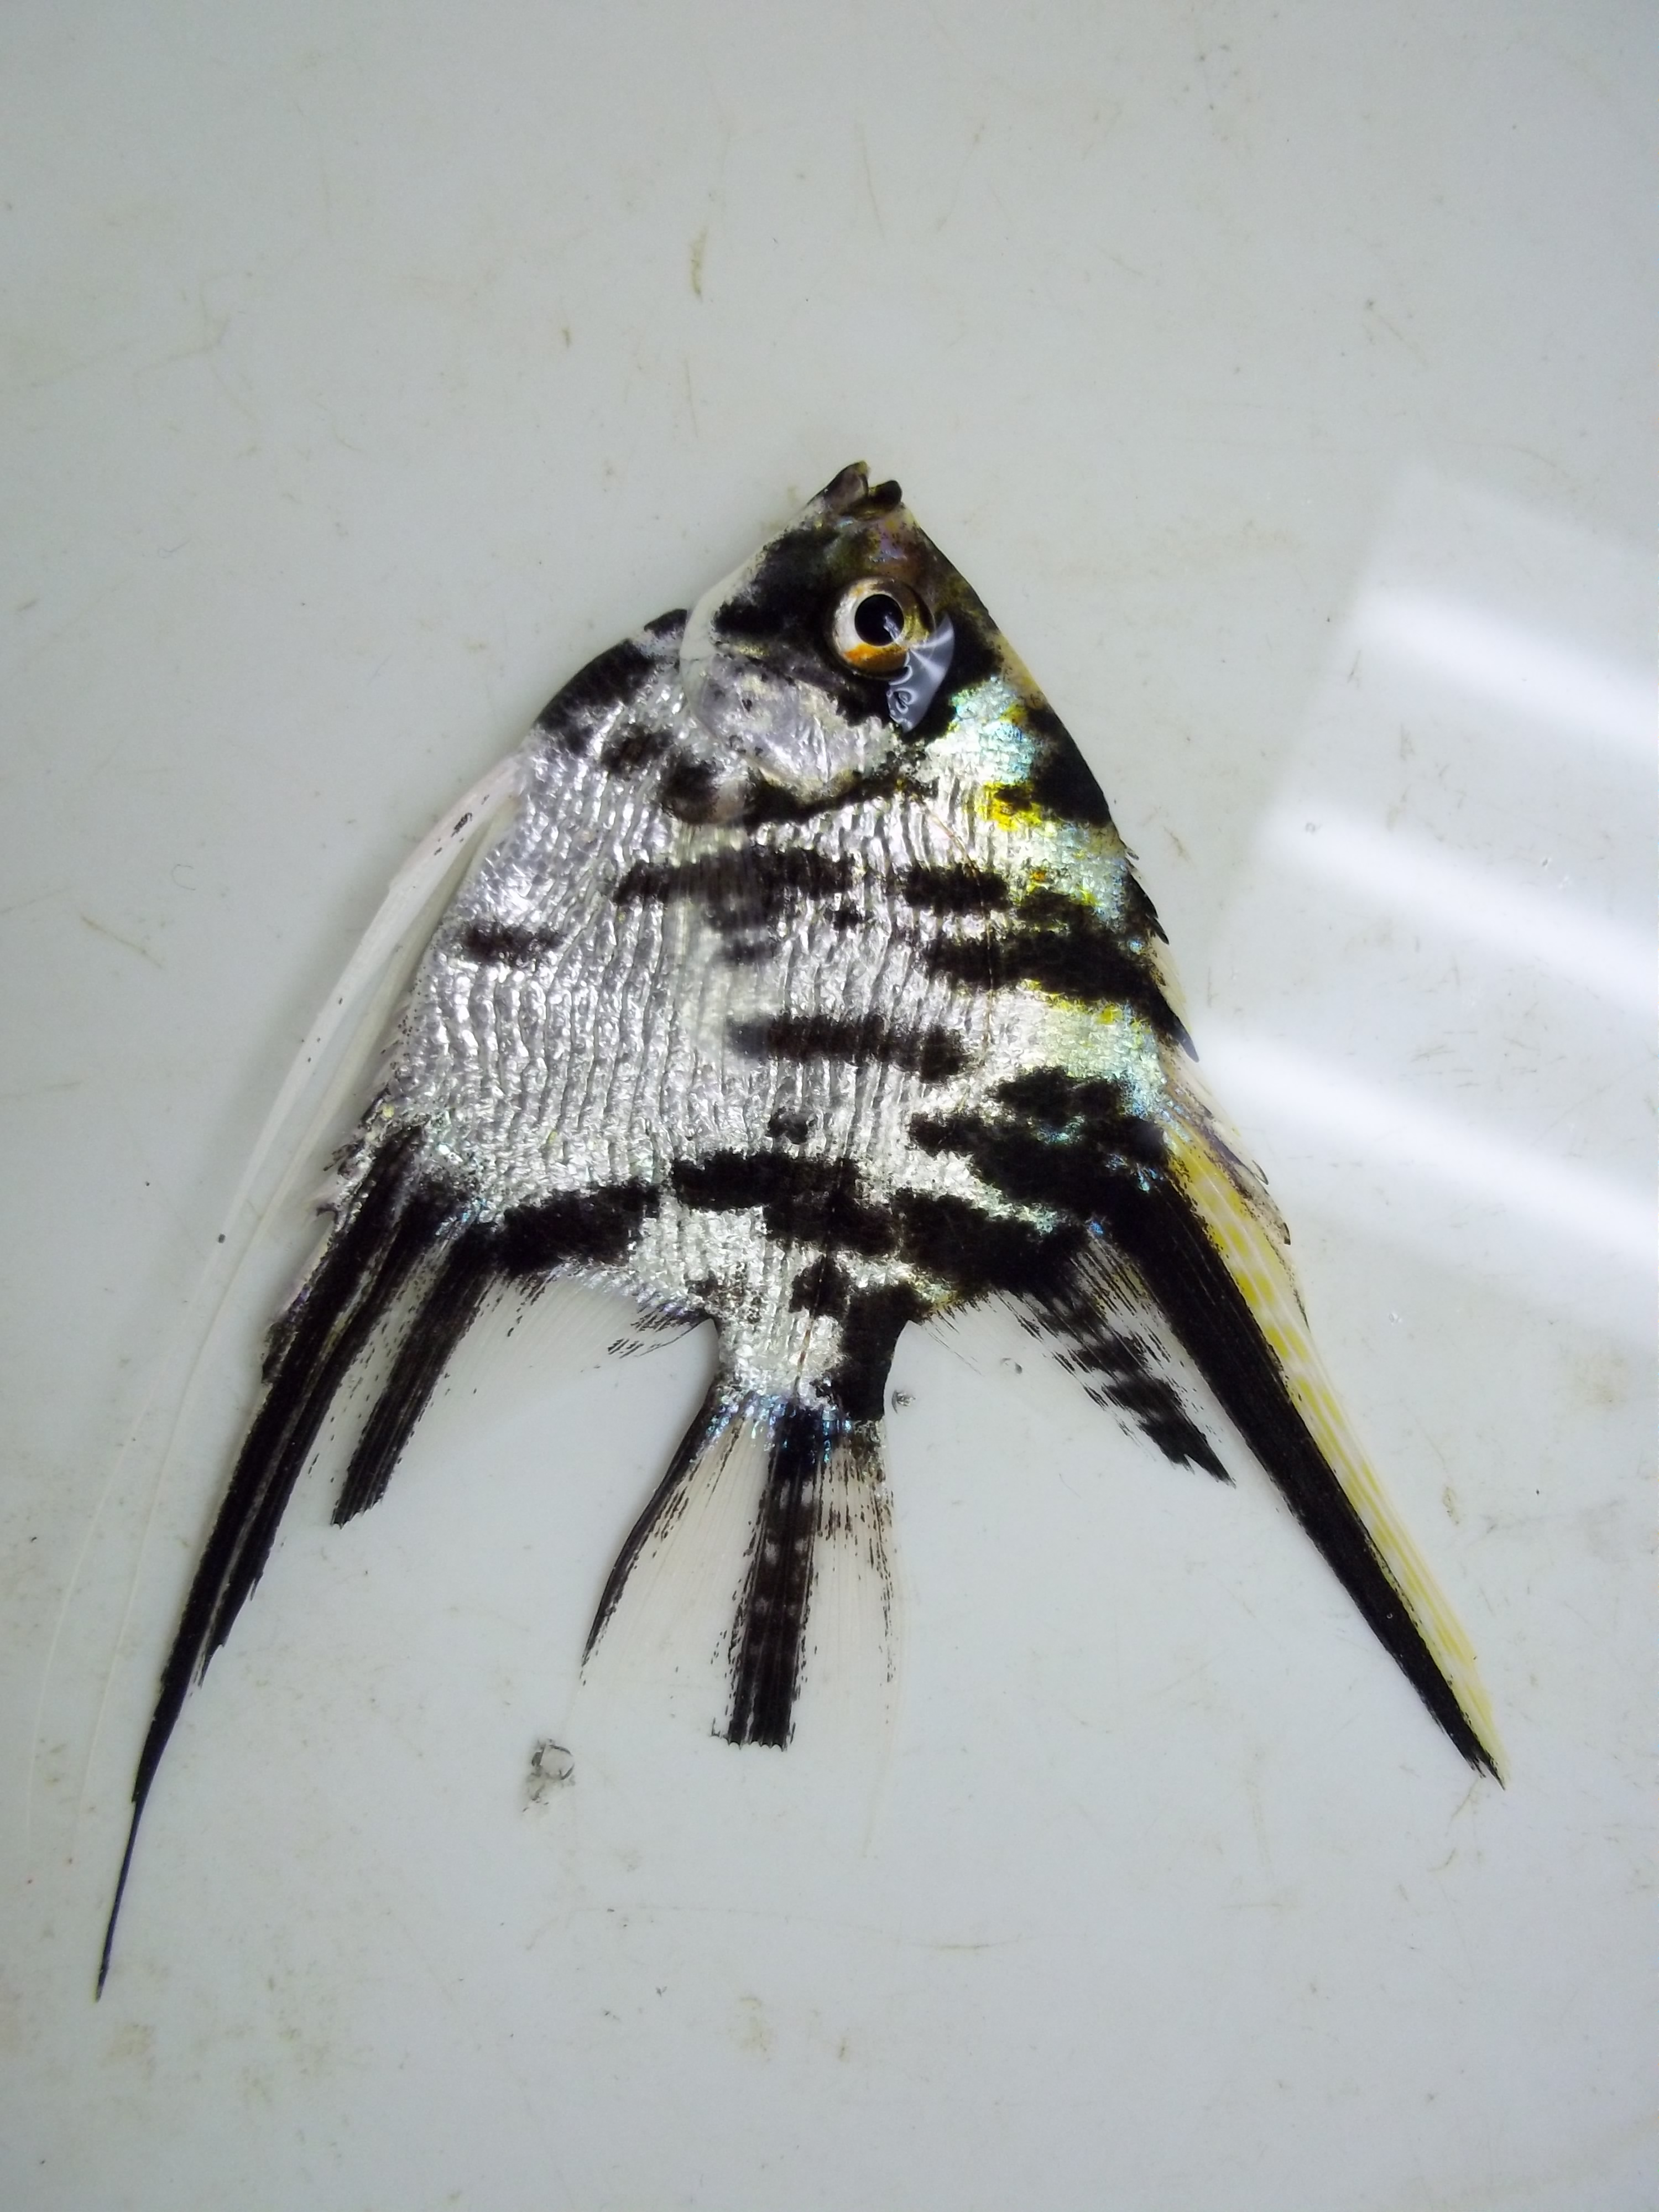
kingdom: Animalia
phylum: Chordata
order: Perciformes
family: Cichlidae
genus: Pterophyllum
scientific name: Pterophyllum scalare
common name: Angelfish
